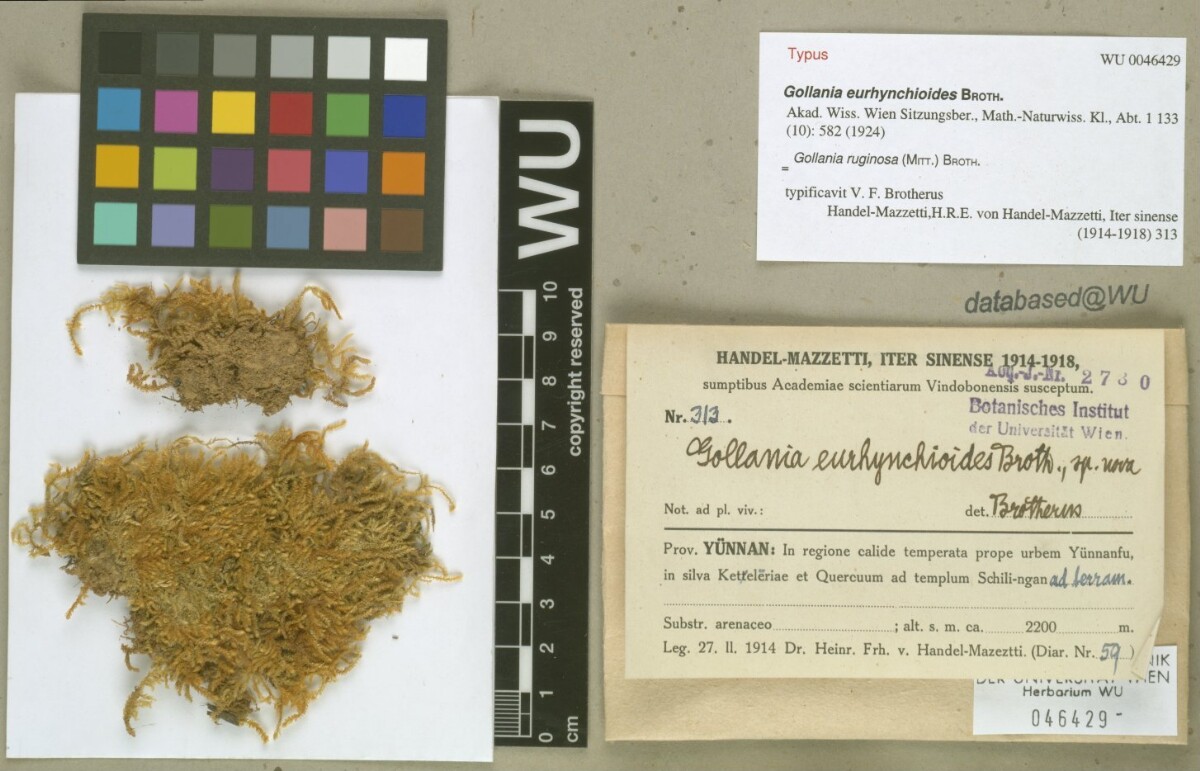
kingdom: Plantae
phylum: Bryophyta
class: Bryopsida
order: Hypnales
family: Hypnaceae
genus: Gollania
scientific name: Gollania ruginosa
